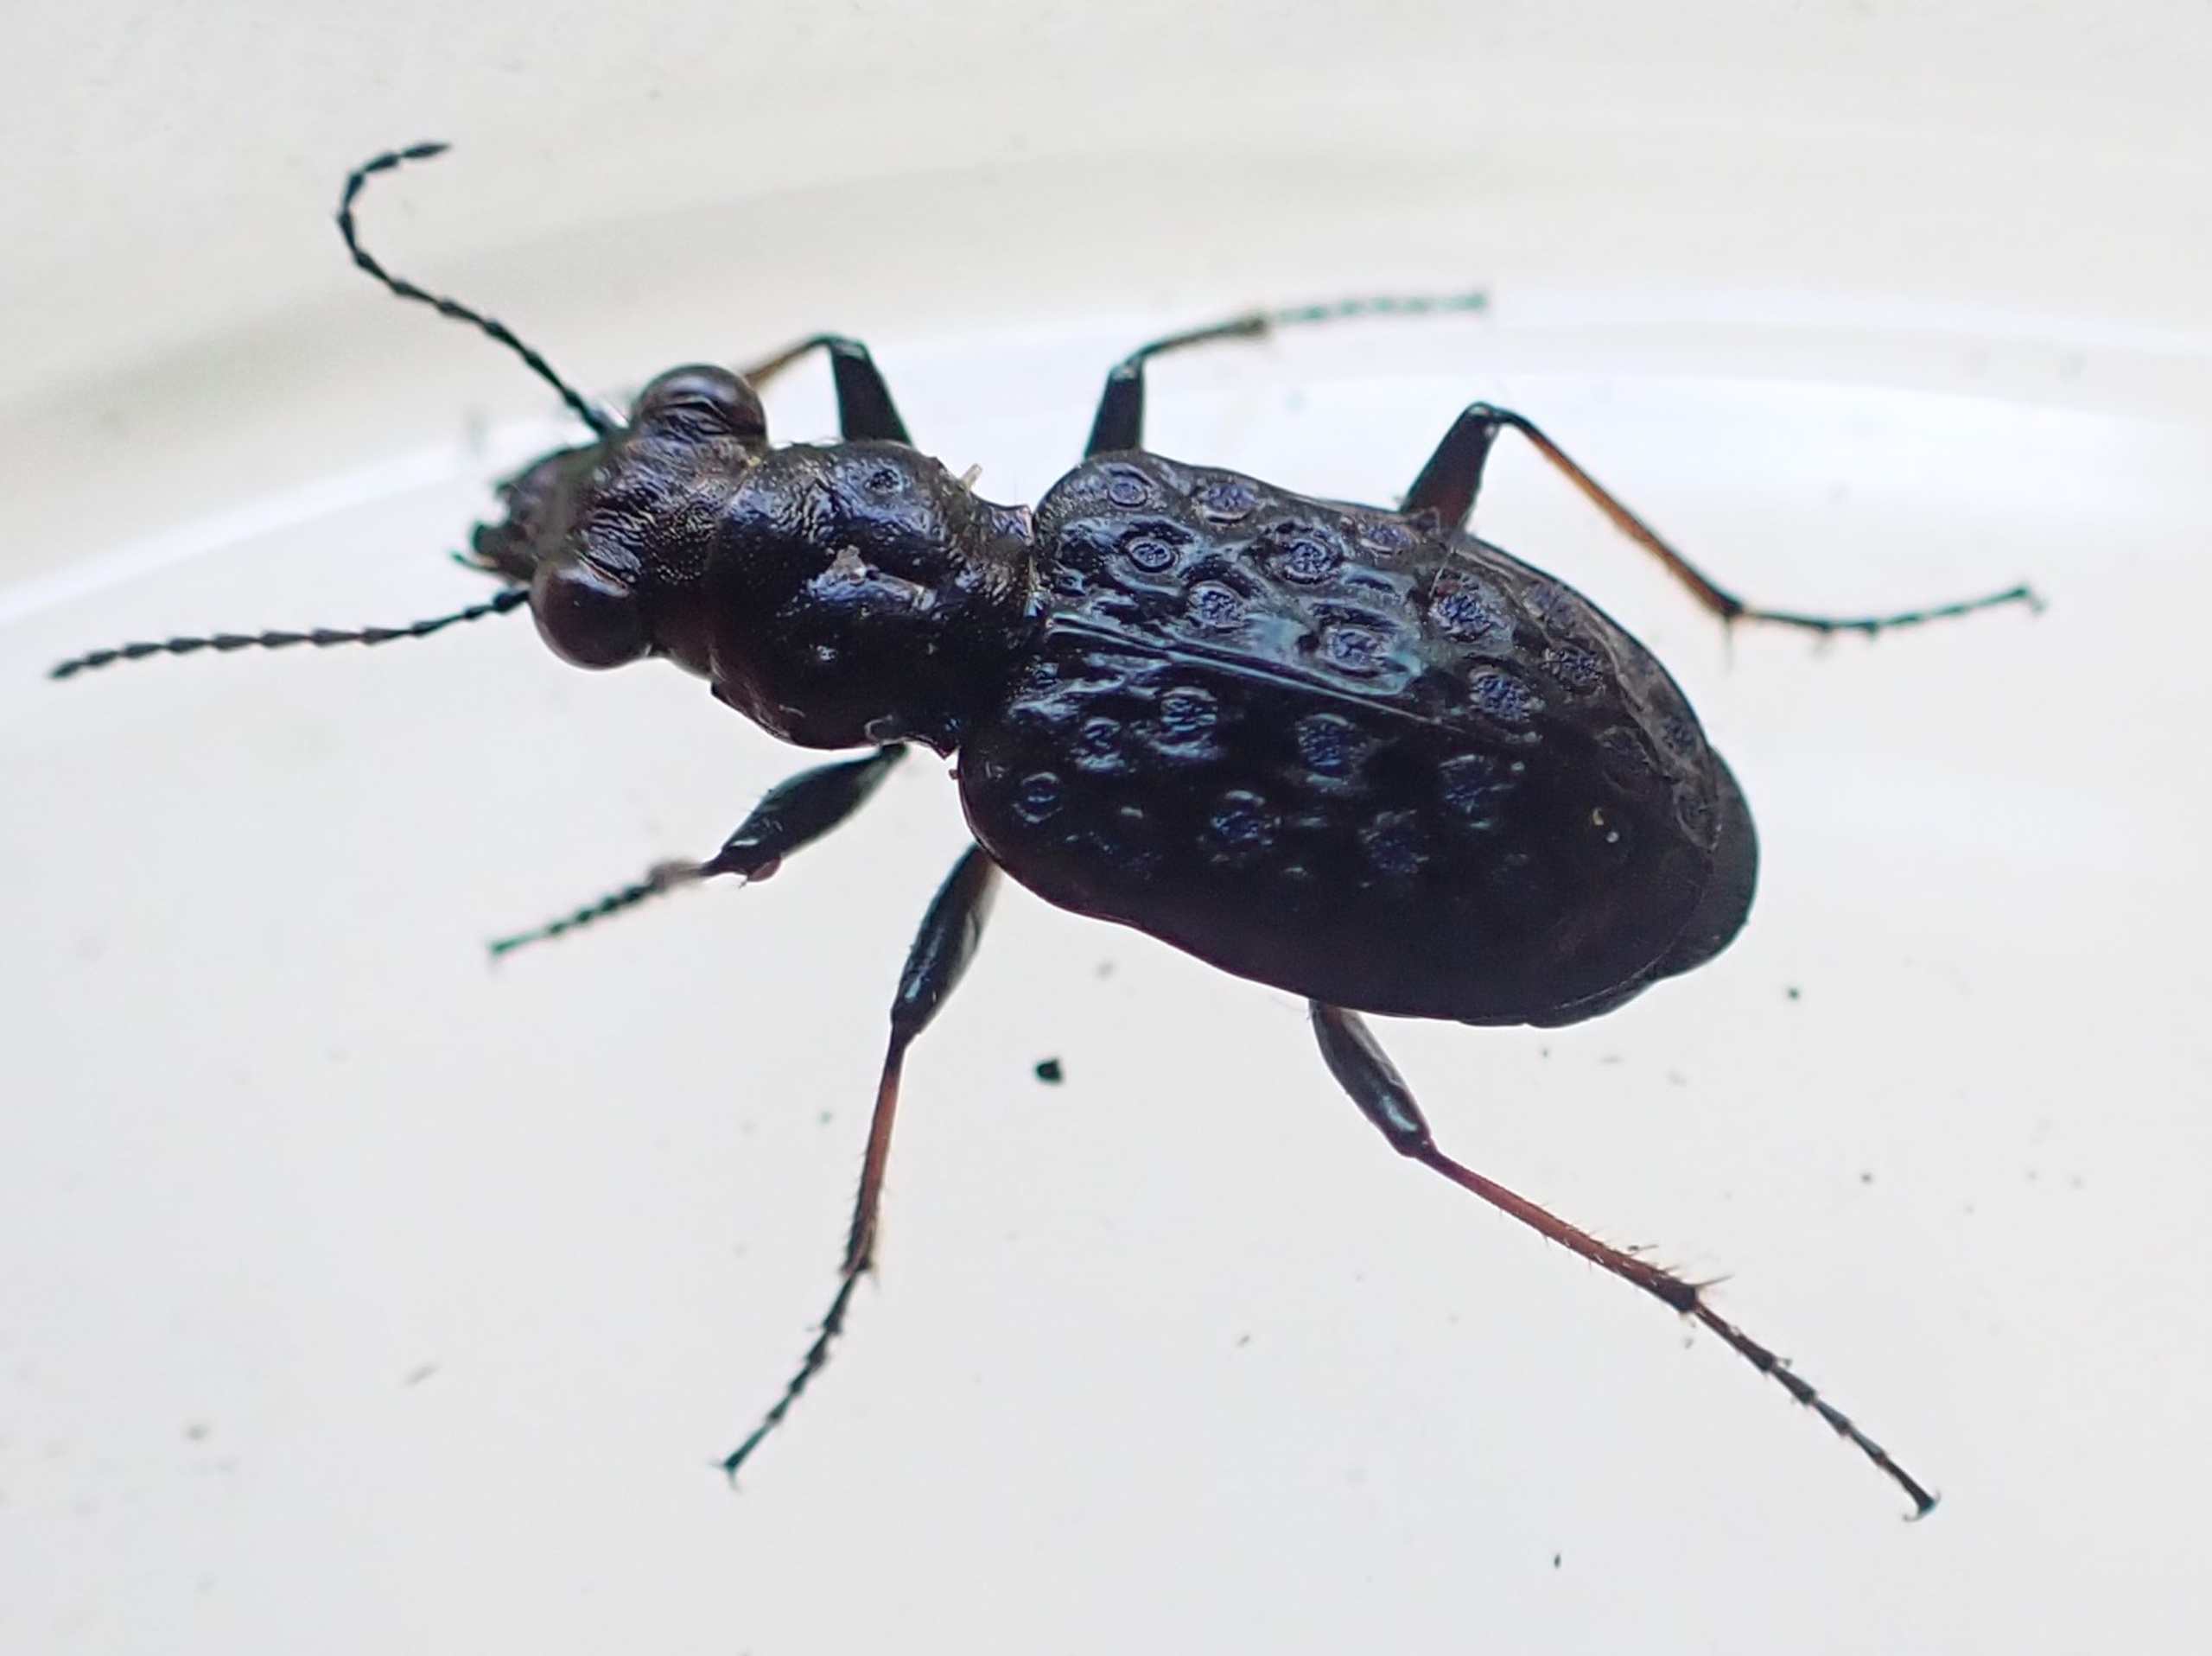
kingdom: Animalia
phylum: Arthropoda
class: Insecta
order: Coleoptera
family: Carabidae
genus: Elaphrus
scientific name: Elaphrus cupreus
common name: Kobberfarvet øjenløber
